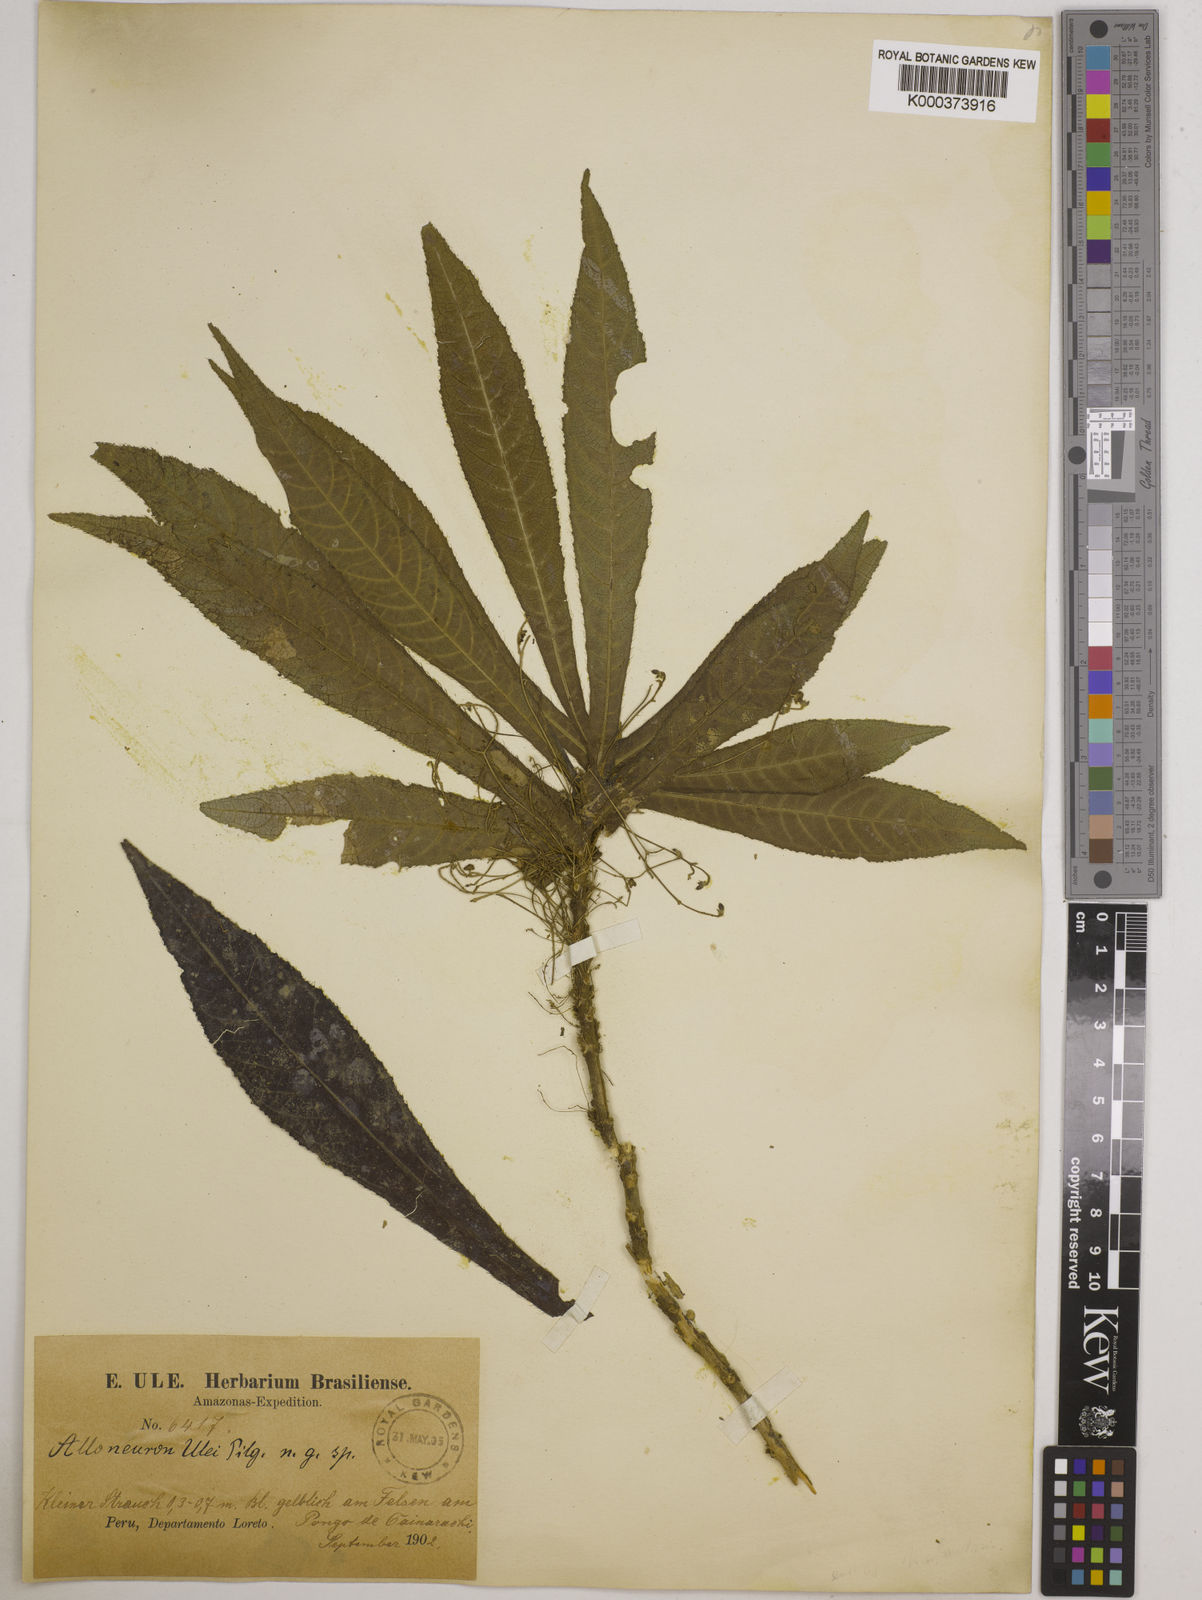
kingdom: Plantae
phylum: Tracheophyta
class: Magnoliopsida
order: Myrtales
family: Melastomataceae
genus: Alloneuron
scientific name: Alloneuron ulei
